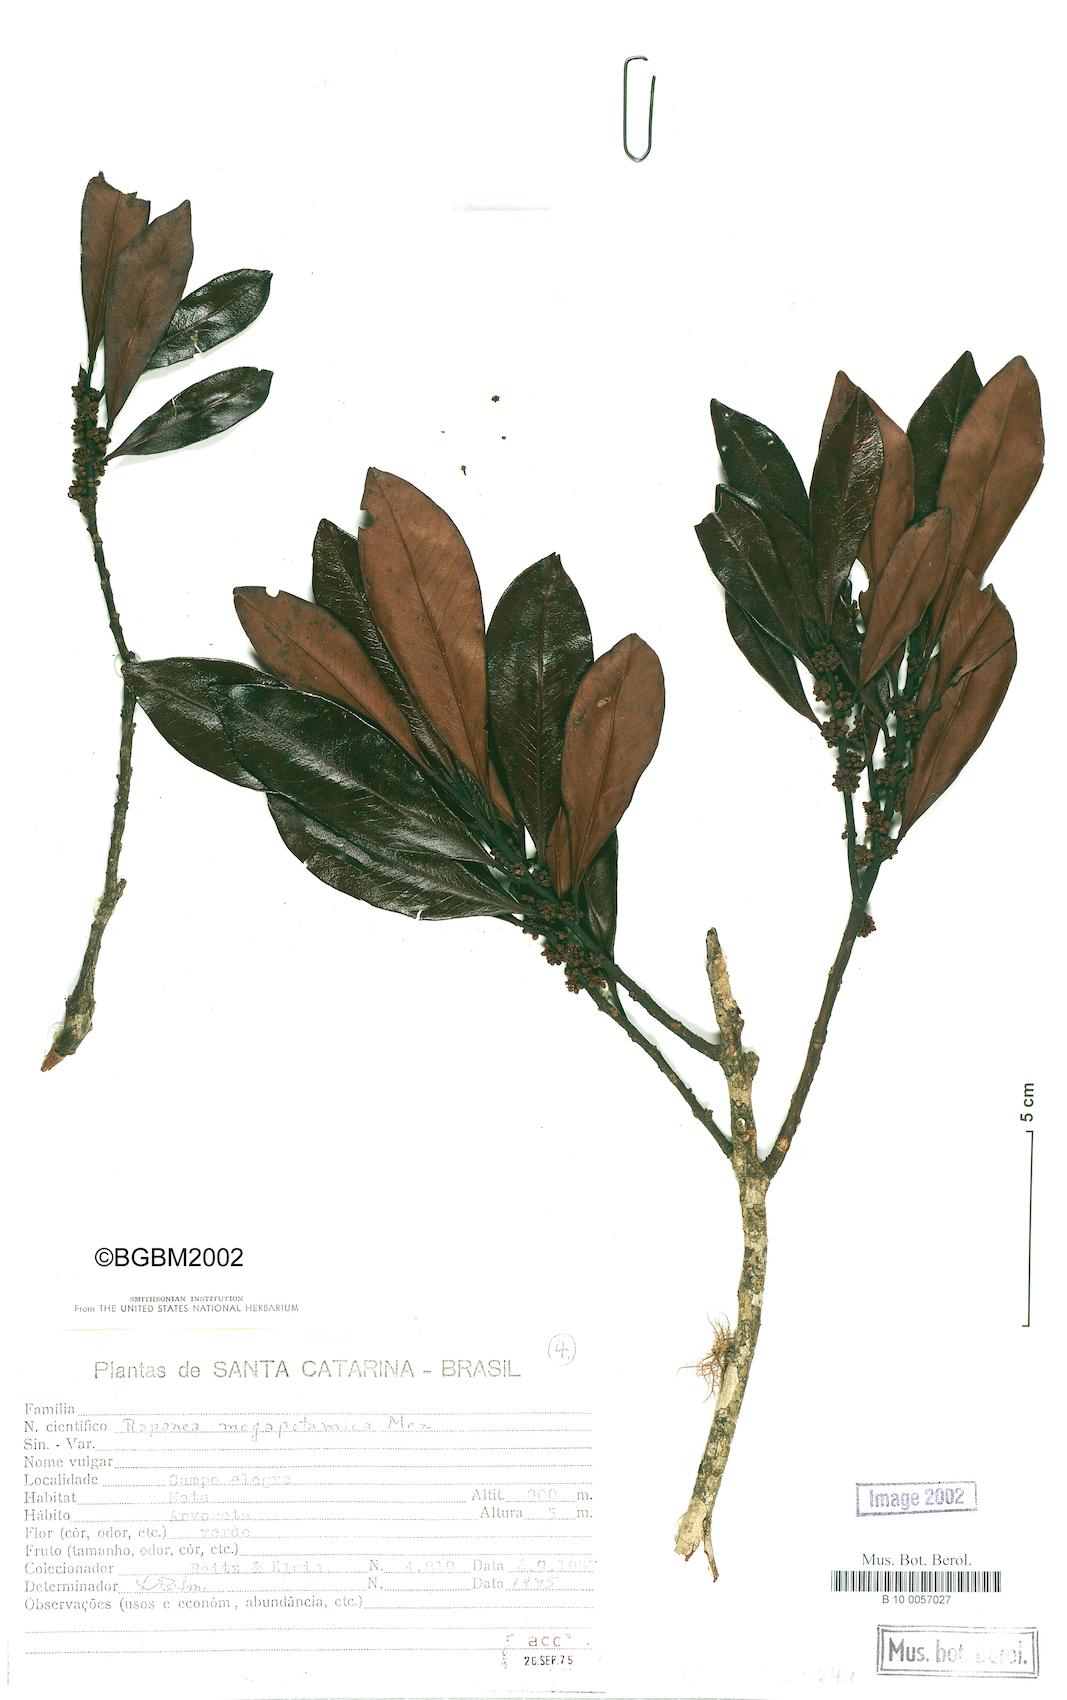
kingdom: Plantae
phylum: Tracheophyta
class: Magnoliopsida
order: Ericales
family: Primulaceae
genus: Myrsine
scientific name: Myrsine lorentziana
